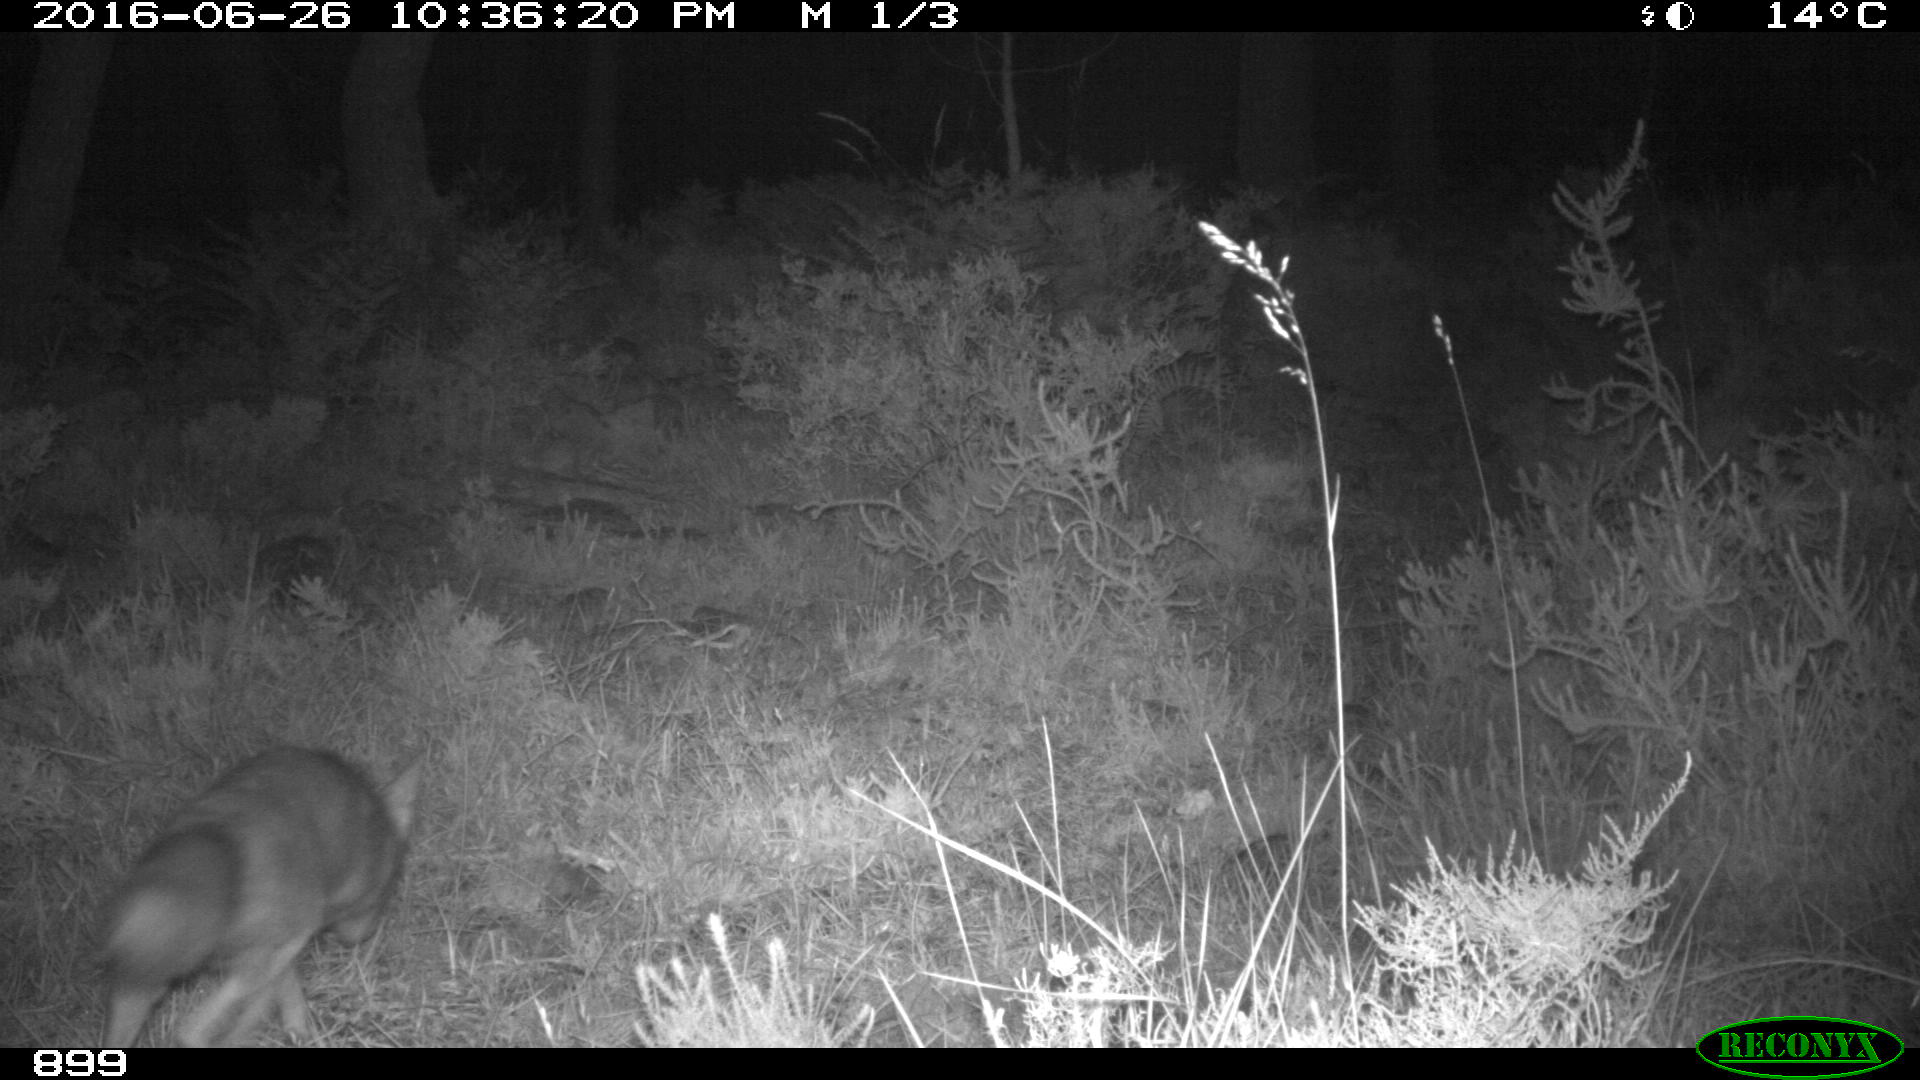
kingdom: Animalia
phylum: Chordata
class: Mammalia
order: Carnivora
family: Canidae
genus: Vulpes
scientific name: Vulpes vulpes
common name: Red fox
